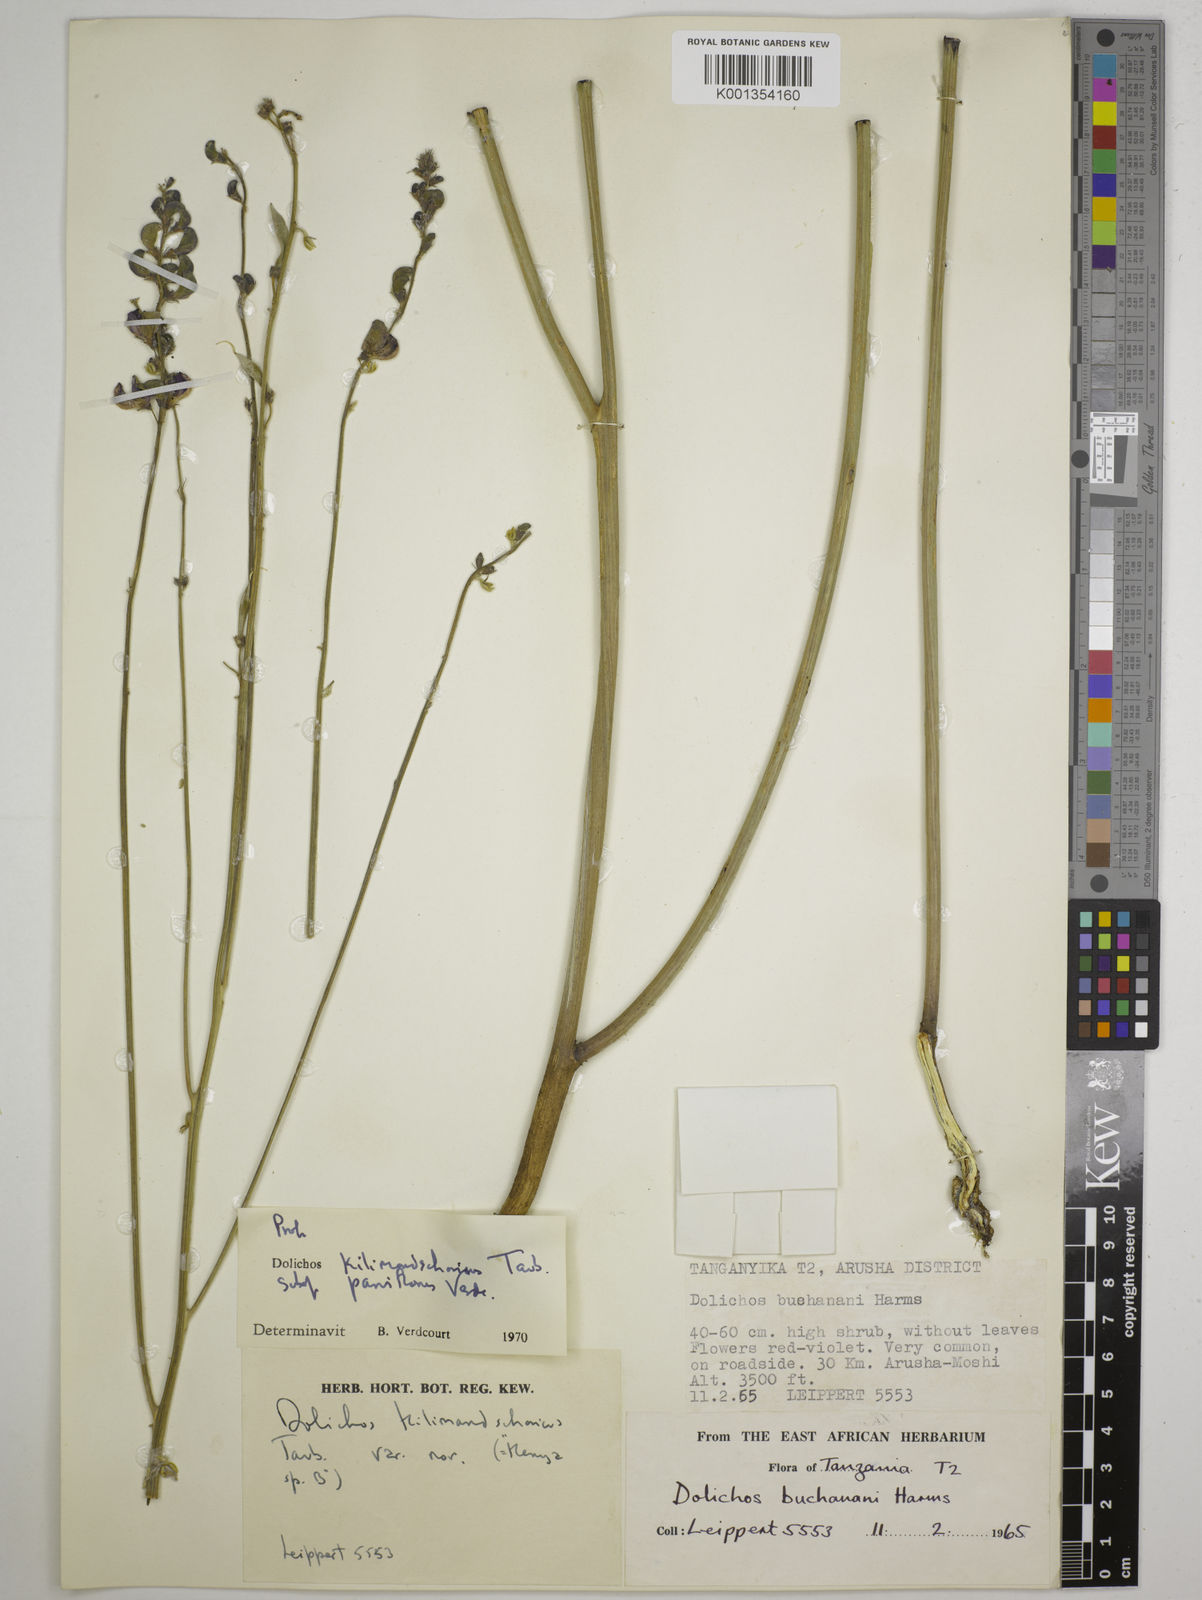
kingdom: Plantae
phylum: Tracheophyta
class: Magnoliopsida
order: Fabales
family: Fabaceae
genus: Dolichos
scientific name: Dolichos kilimandscharicus
